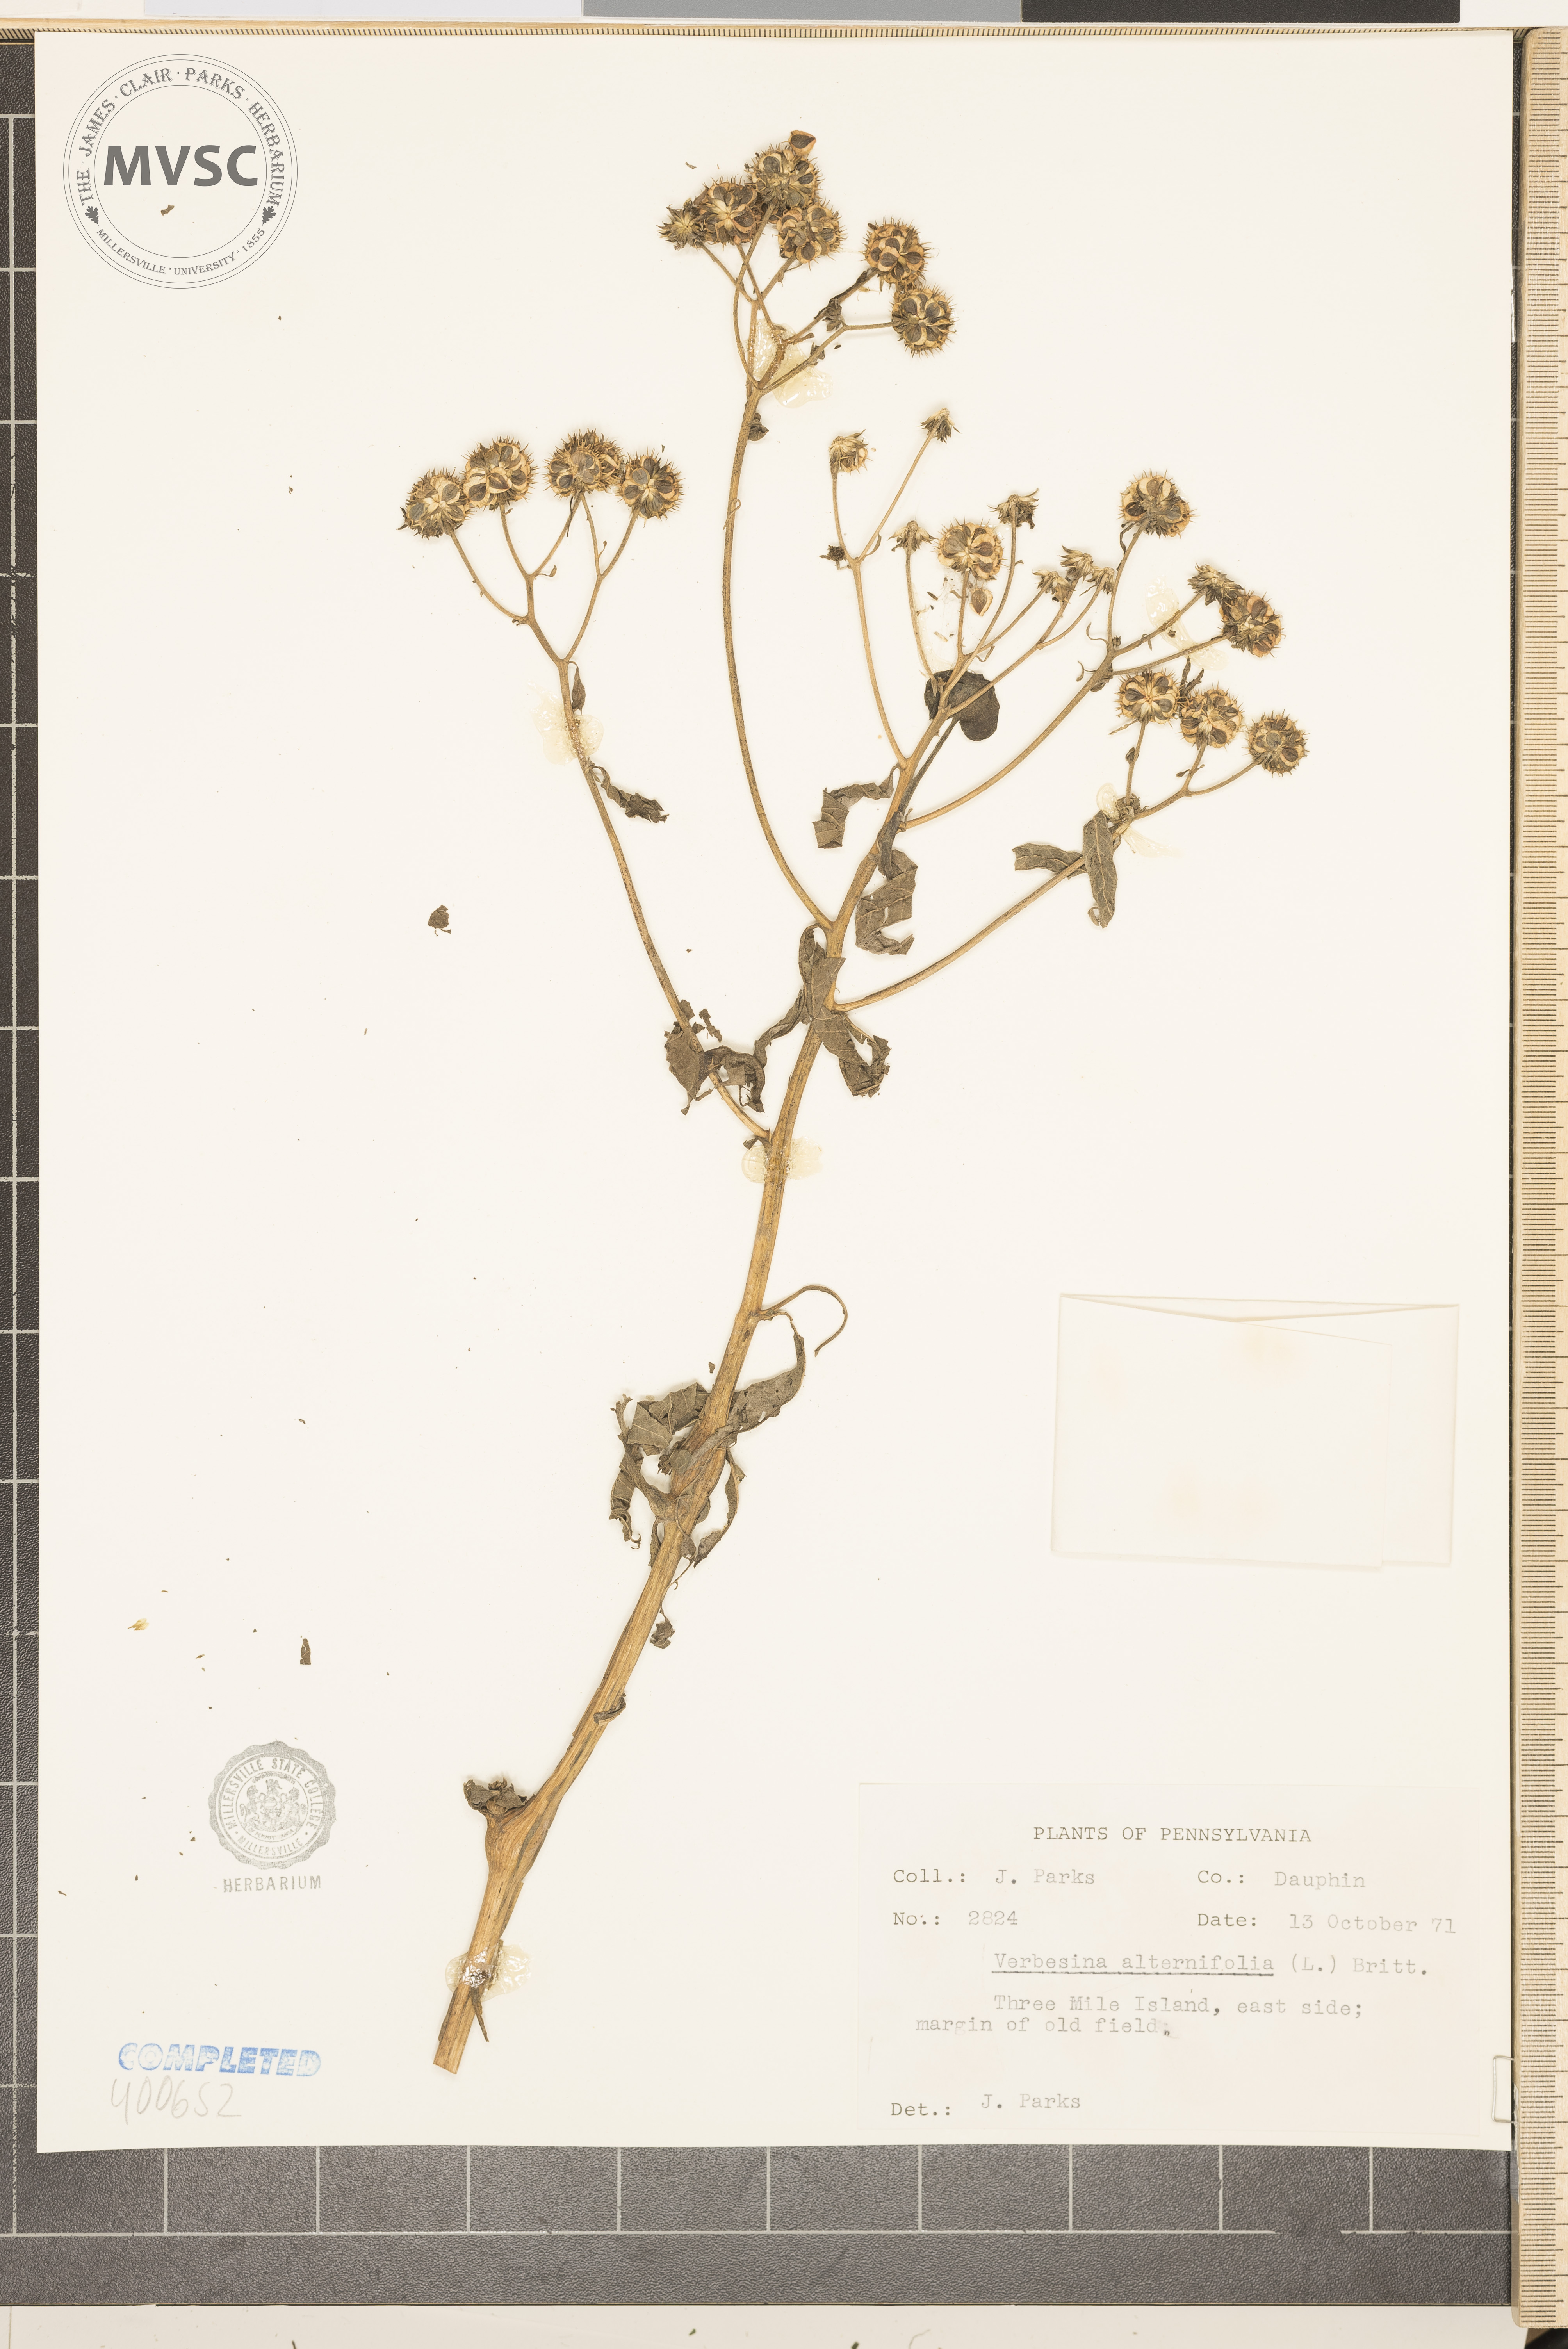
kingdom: Plantae
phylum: Tracheophyta
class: Magnoliopsida
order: Asterales
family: Asteraceae
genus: Verbesina
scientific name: Verbesina alternifolia
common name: Wingstem
